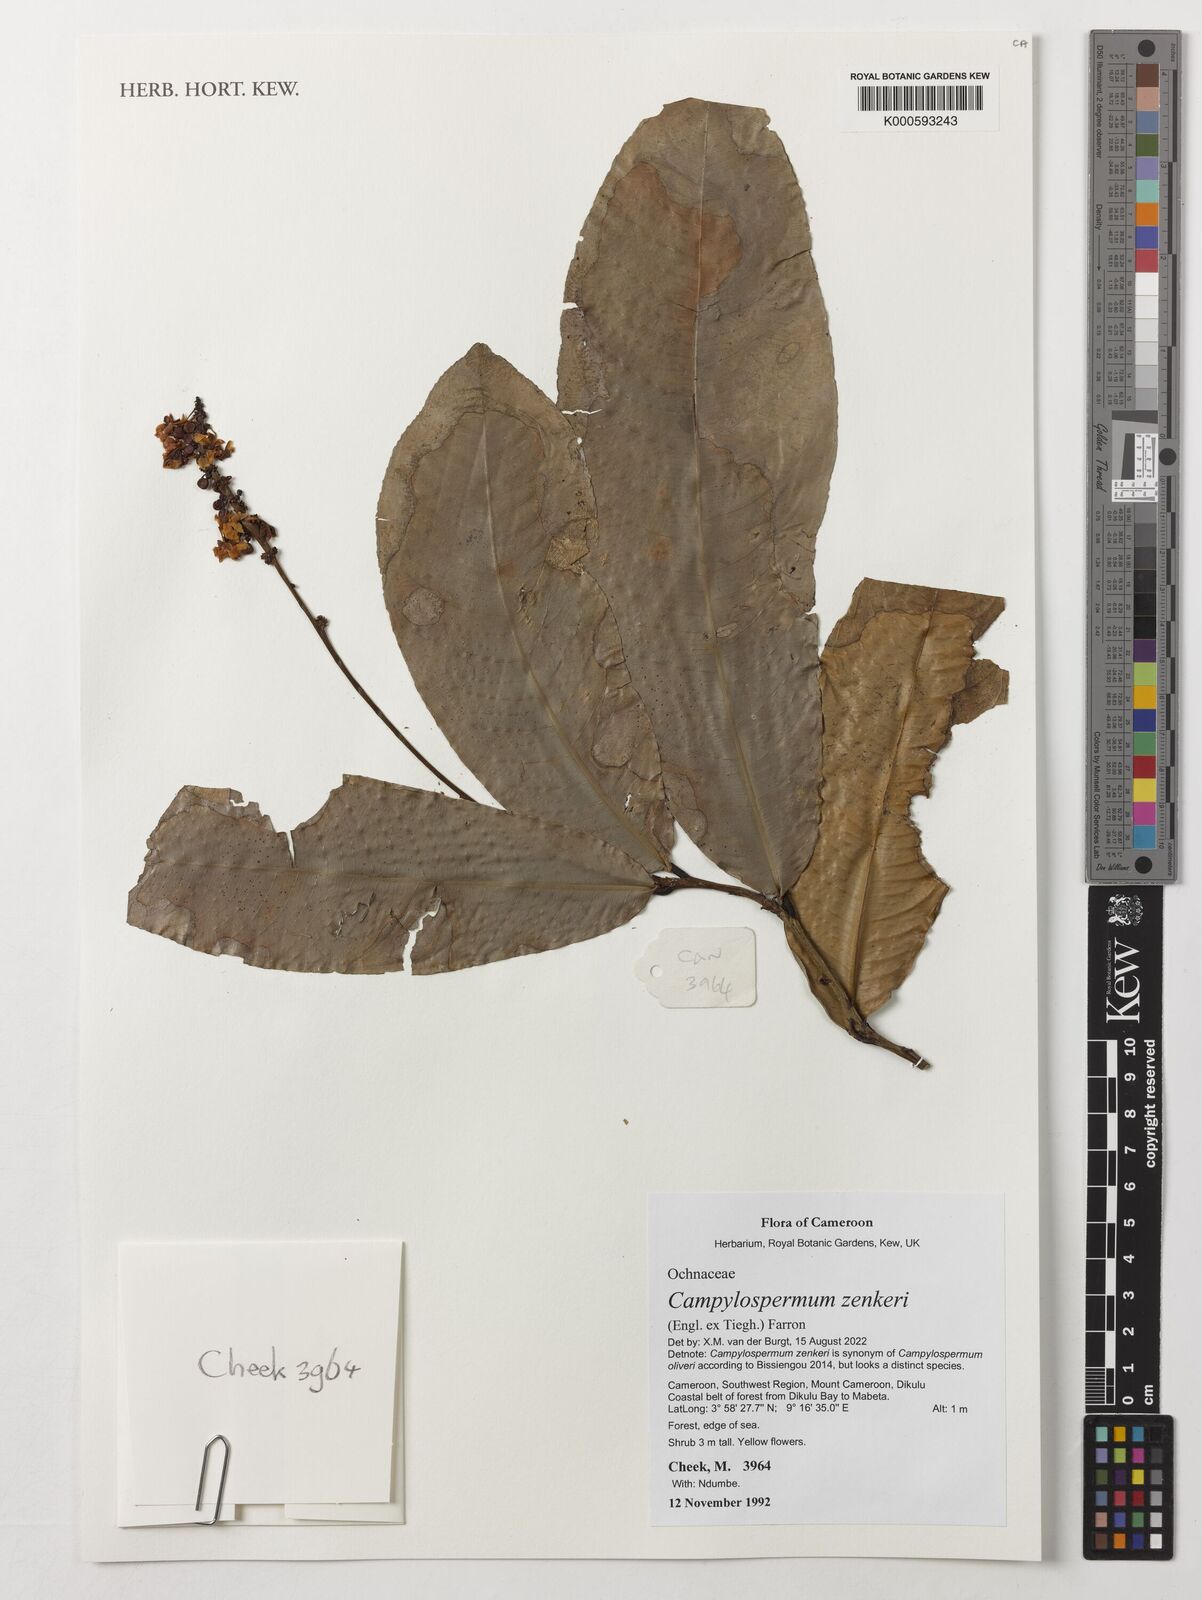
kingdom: Plantae
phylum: Tracheophyta
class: Magnoliopsida
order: Malpighiales
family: Ochnaceae
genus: Campylospermum
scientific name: Campylospermum zenkeri
